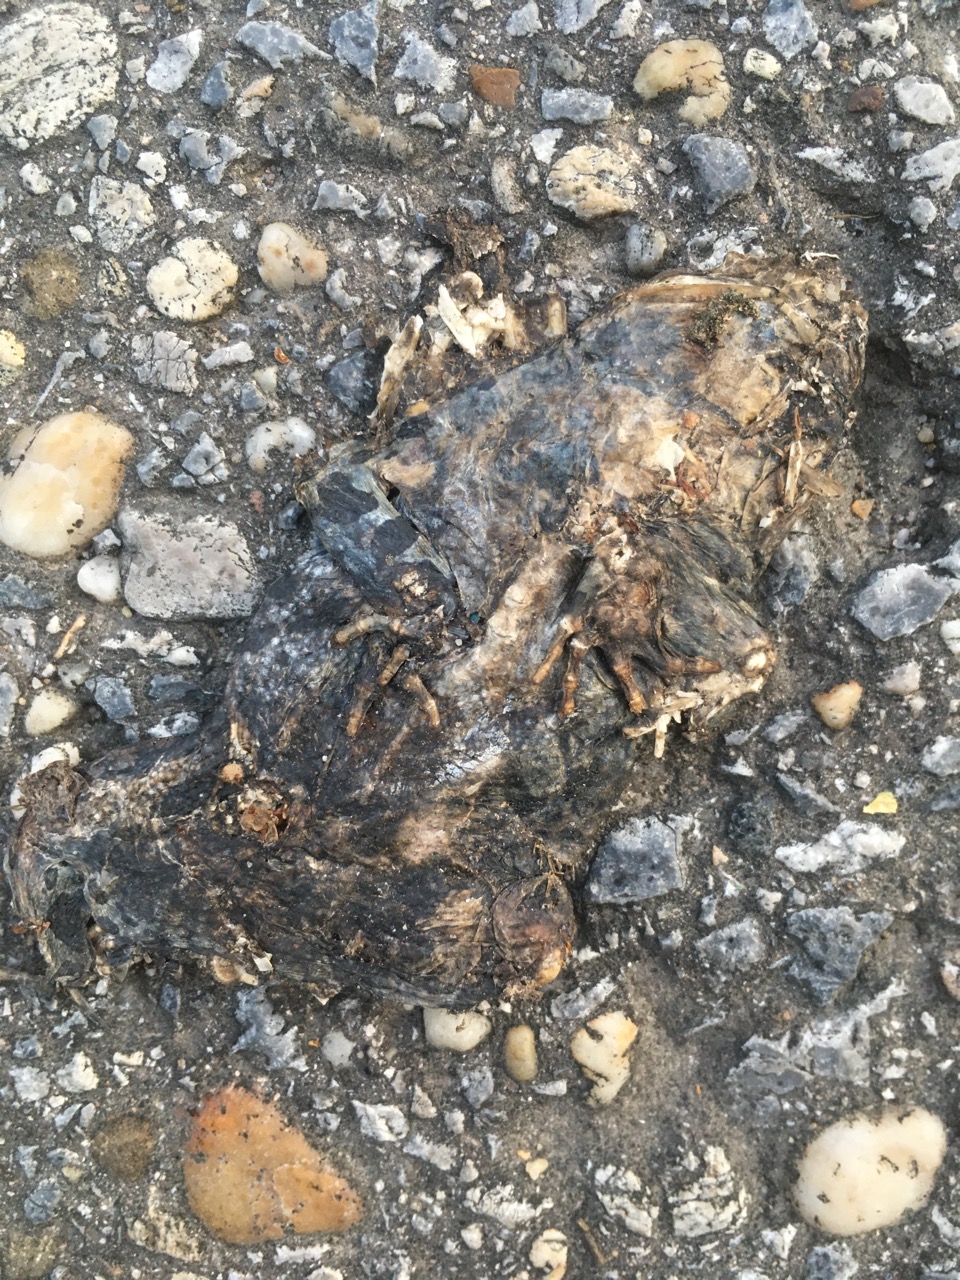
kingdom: Animalia
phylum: Chordata
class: Amphibia
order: Anura
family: Bufonidae
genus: Bufotes
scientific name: Bufotes viridis
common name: European green toad
